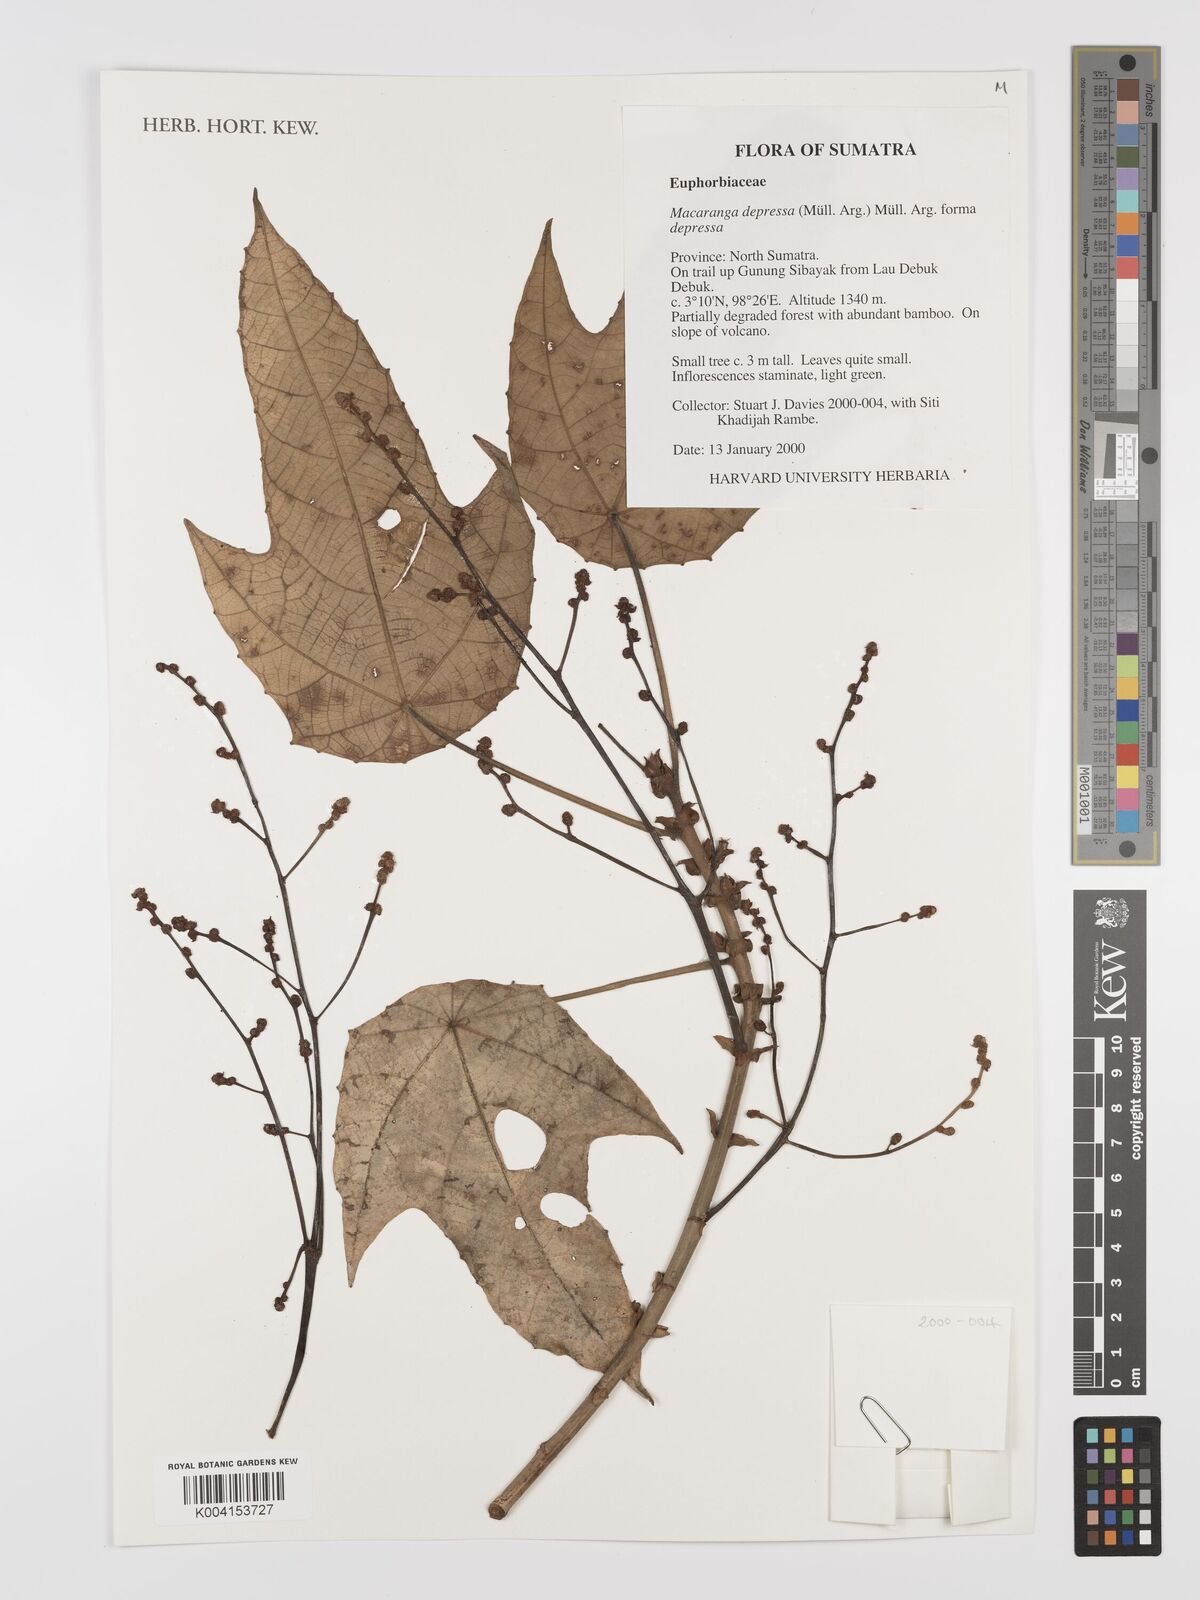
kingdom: Plantae
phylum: Tracheophyta
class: Magnoliopsida
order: Malpighiales
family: Euphorbiaceae
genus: Macaranga
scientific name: Macaranga depressa
